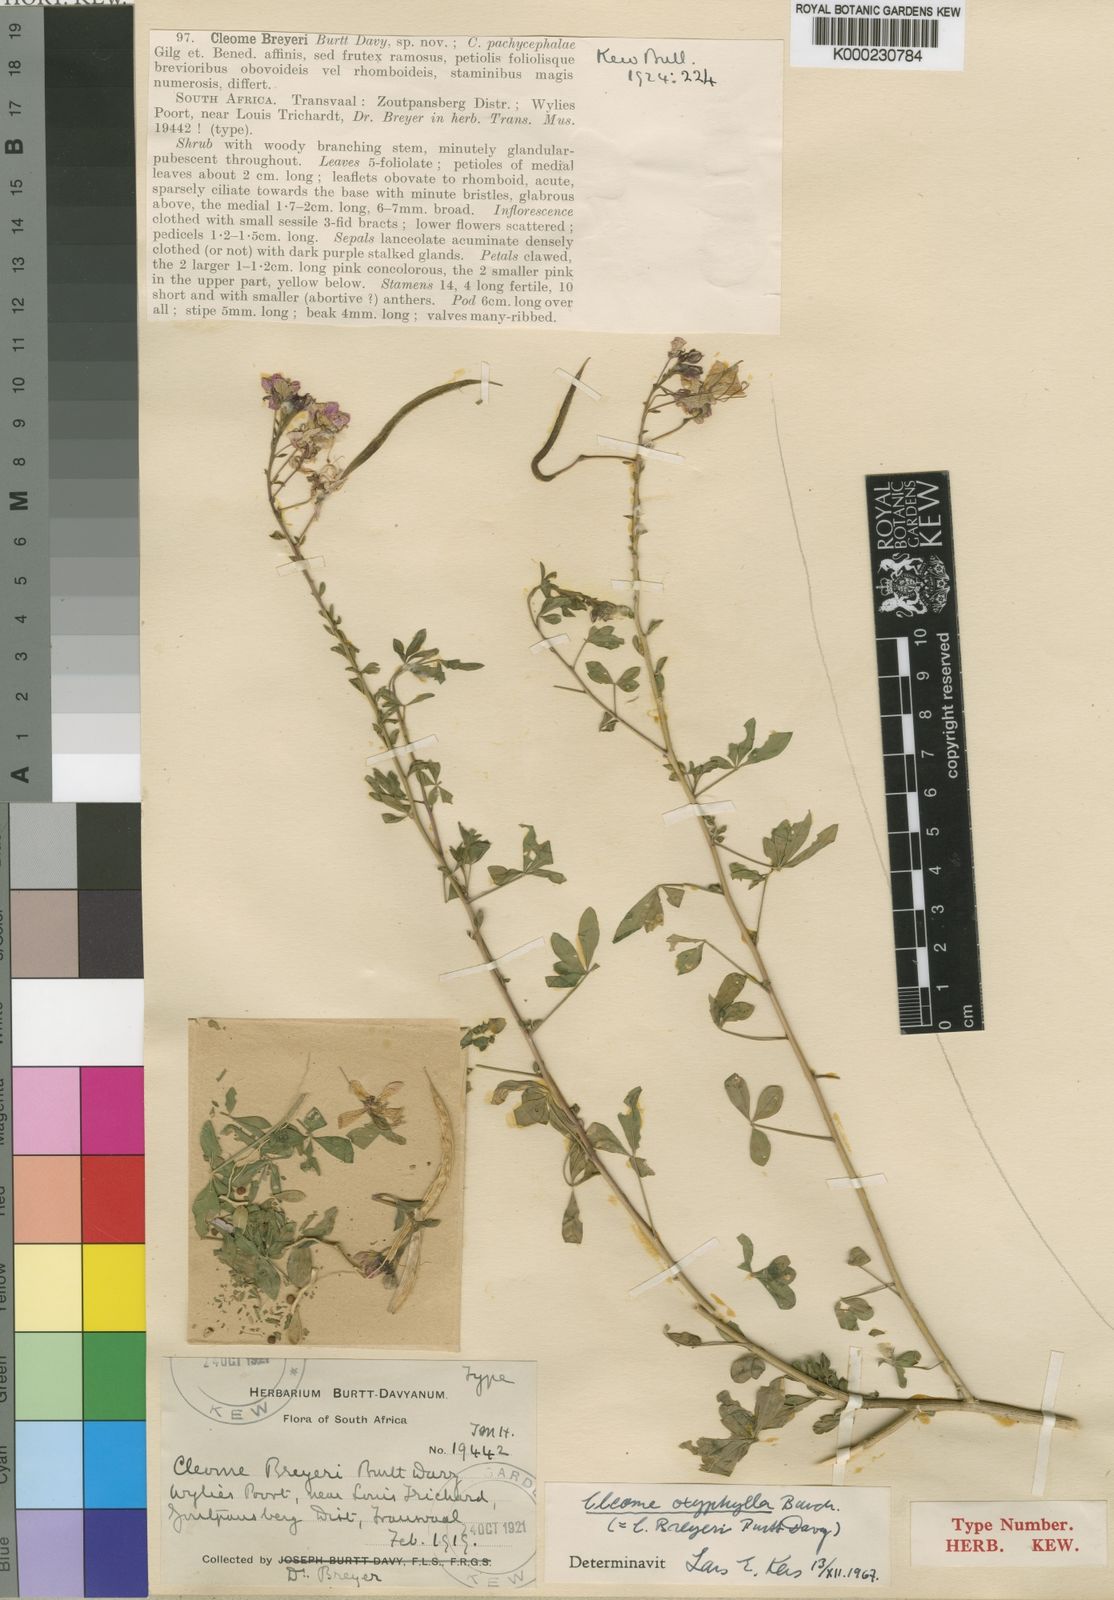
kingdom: Plantae
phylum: Tracheophyta
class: Magnoliopsida
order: Brassicales
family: Cleomaceae
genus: Sieruela
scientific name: Sieruela oxyphylla
